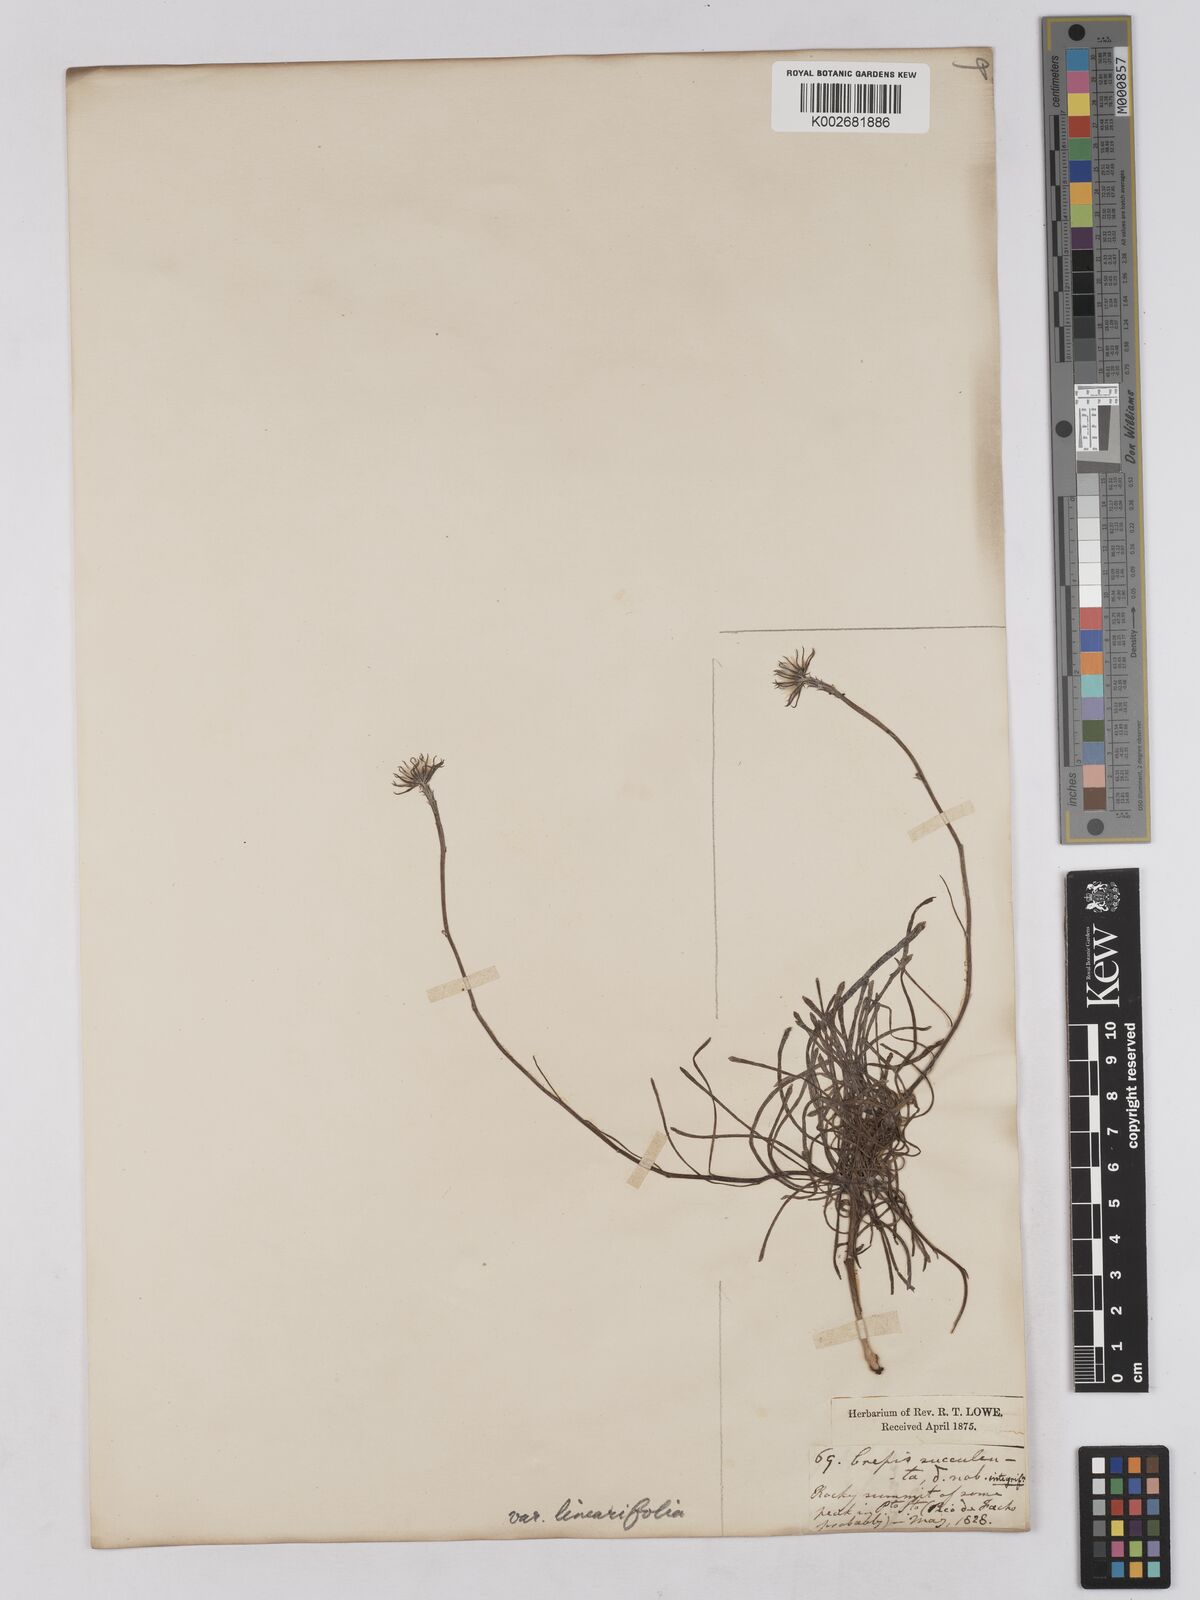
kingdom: Plantae
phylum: Tracheophyta
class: Magnoliopsida
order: Asterales
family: Asteraceae
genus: Tolpis
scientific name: Tolpis succulenta
